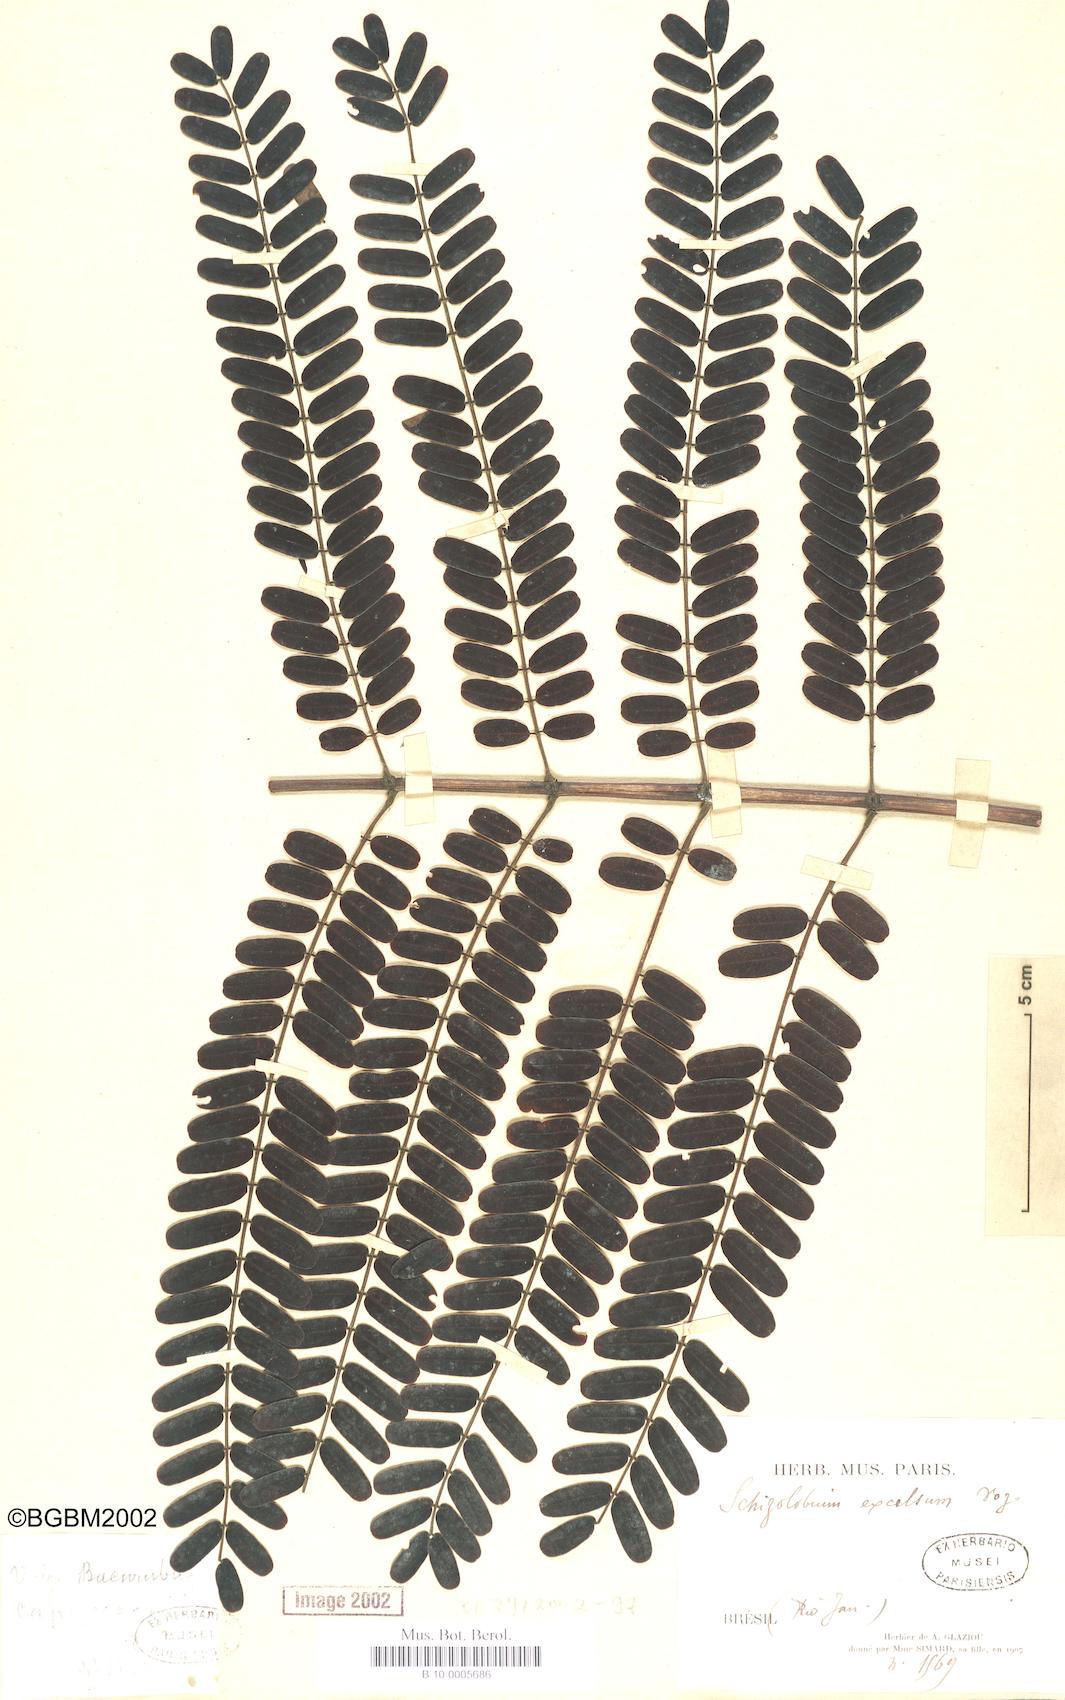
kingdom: Plantae
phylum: Tracheophyta
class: Magnoliopsida
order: Fabales
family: Fabaceae
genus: Schizolobium
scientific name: Schizolobium parahyba
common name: Brazilian firetree
